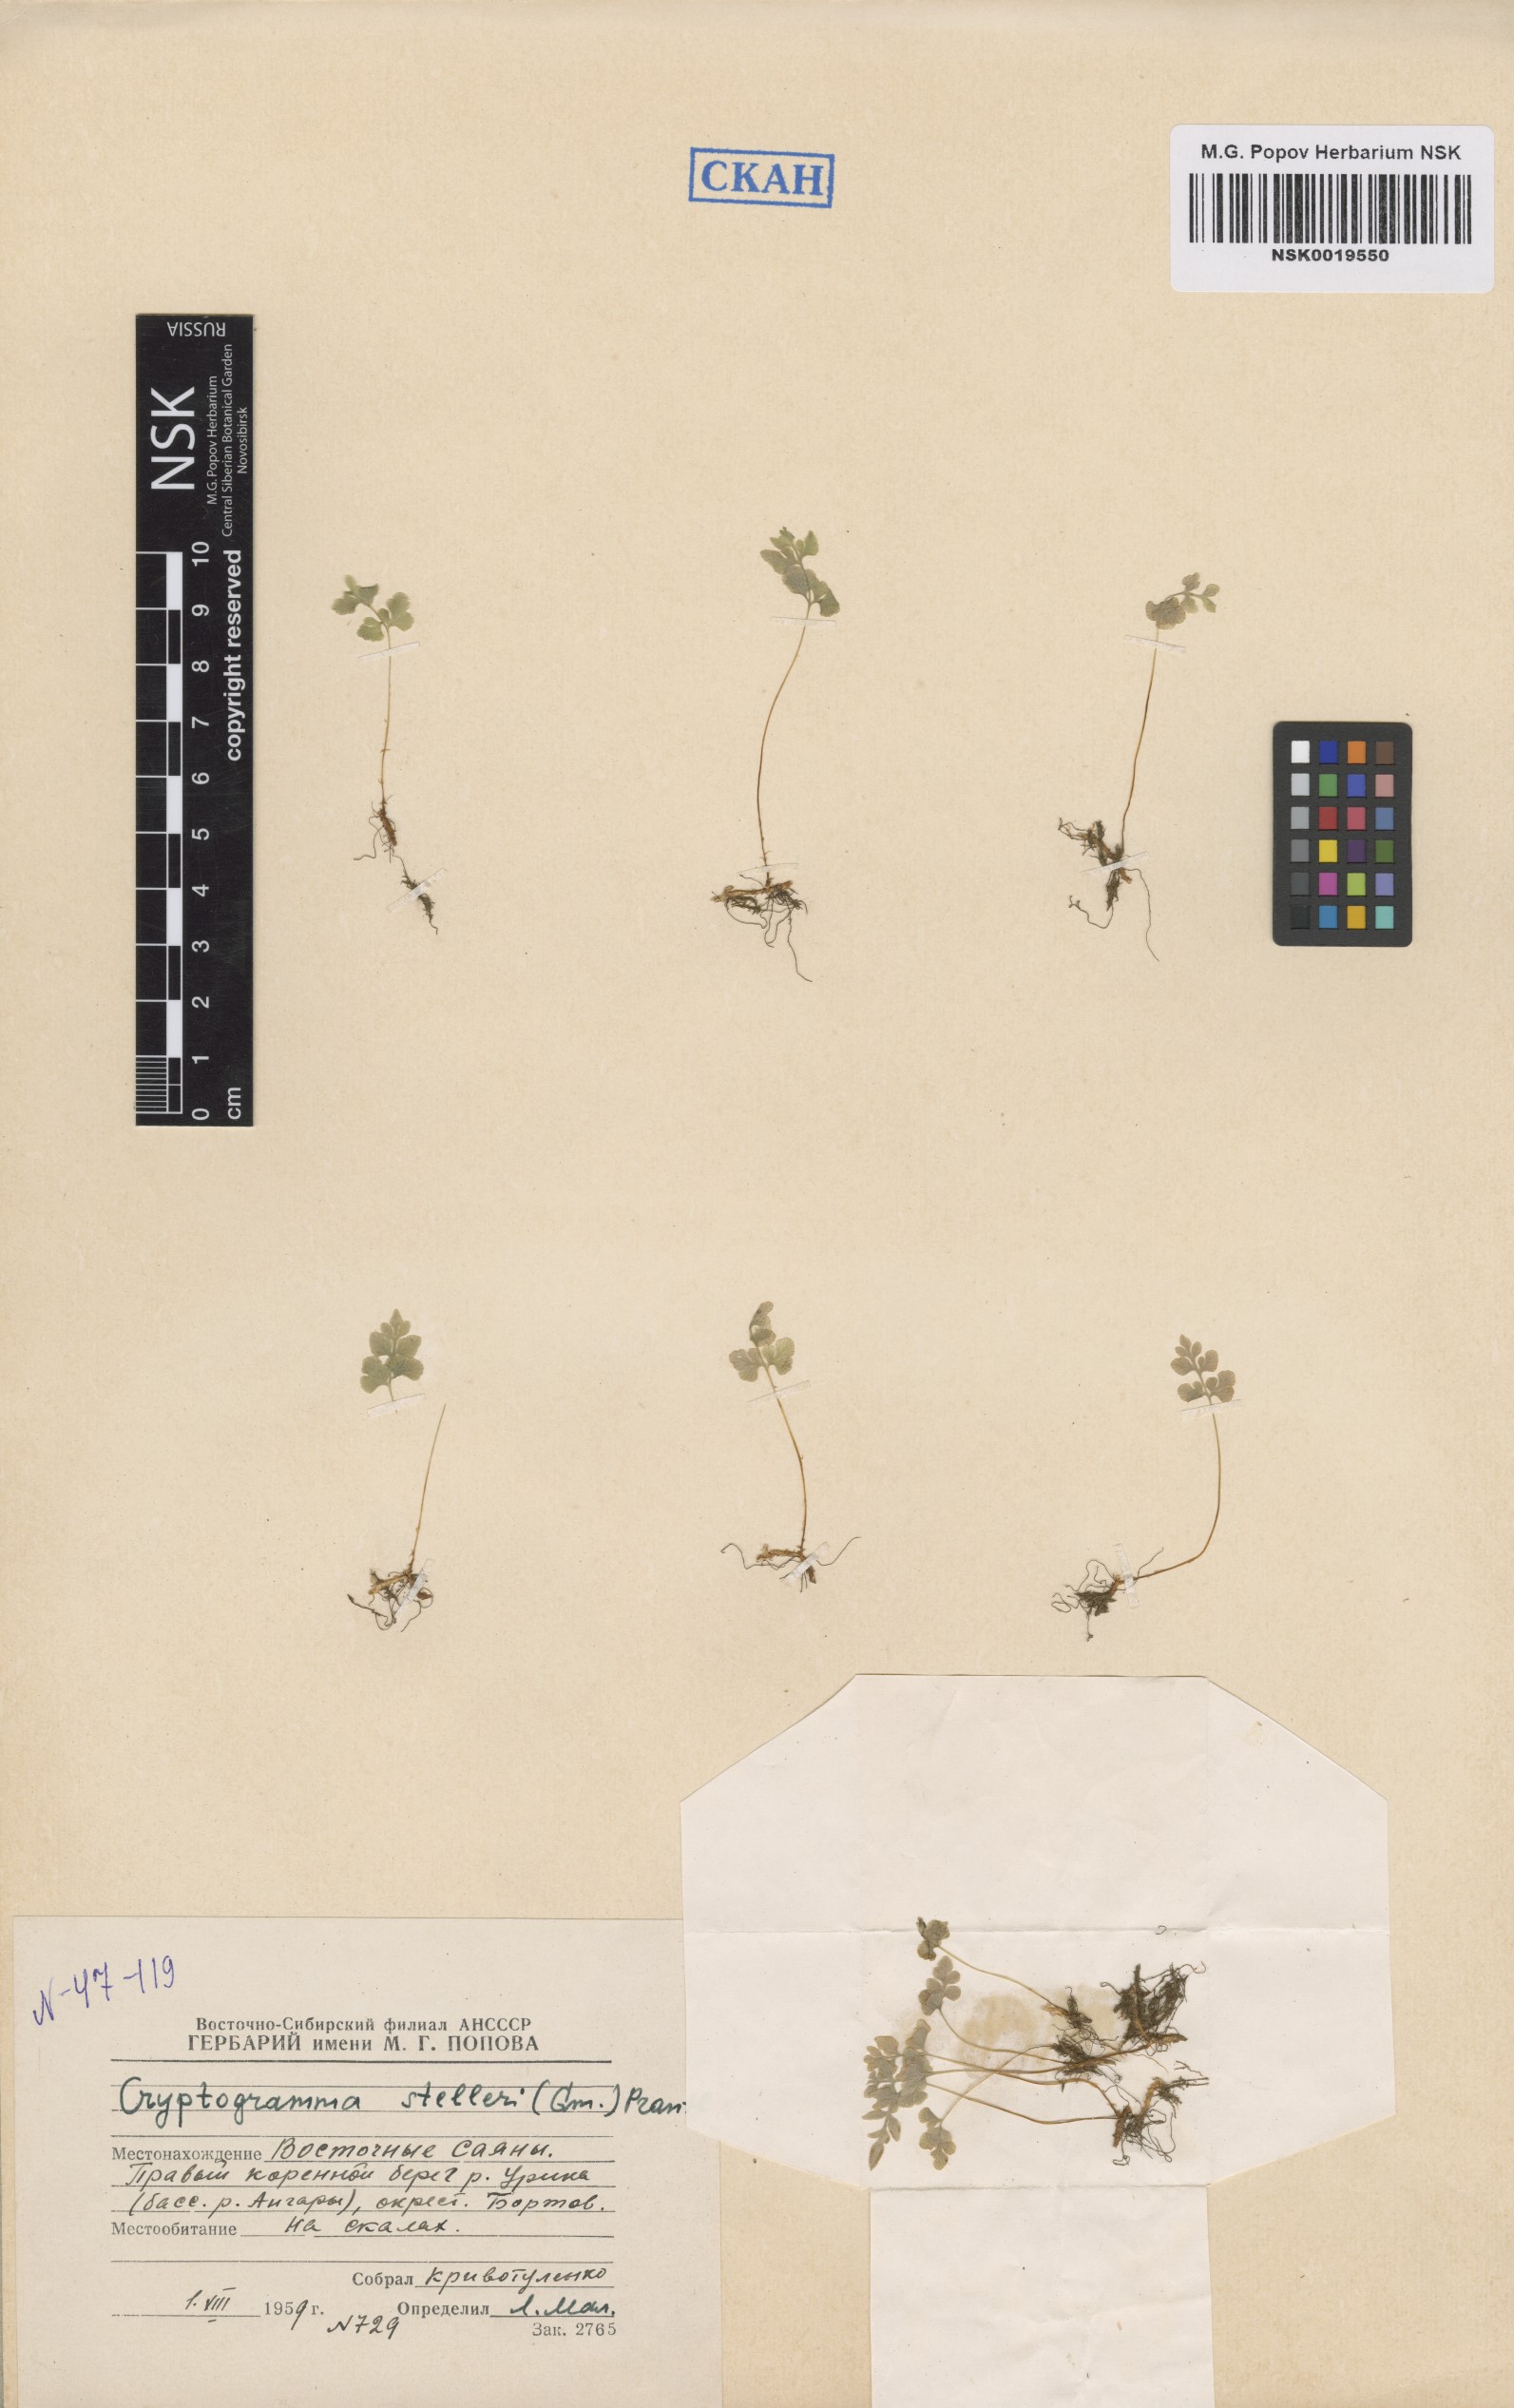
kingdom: Plantae
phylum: Tracheophyta
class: Polypodiopsida
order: Polypodiales
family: Pteridaceae
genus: Cryptogramma
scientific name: Cryptogramma stelleri
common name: Cliff-brake
